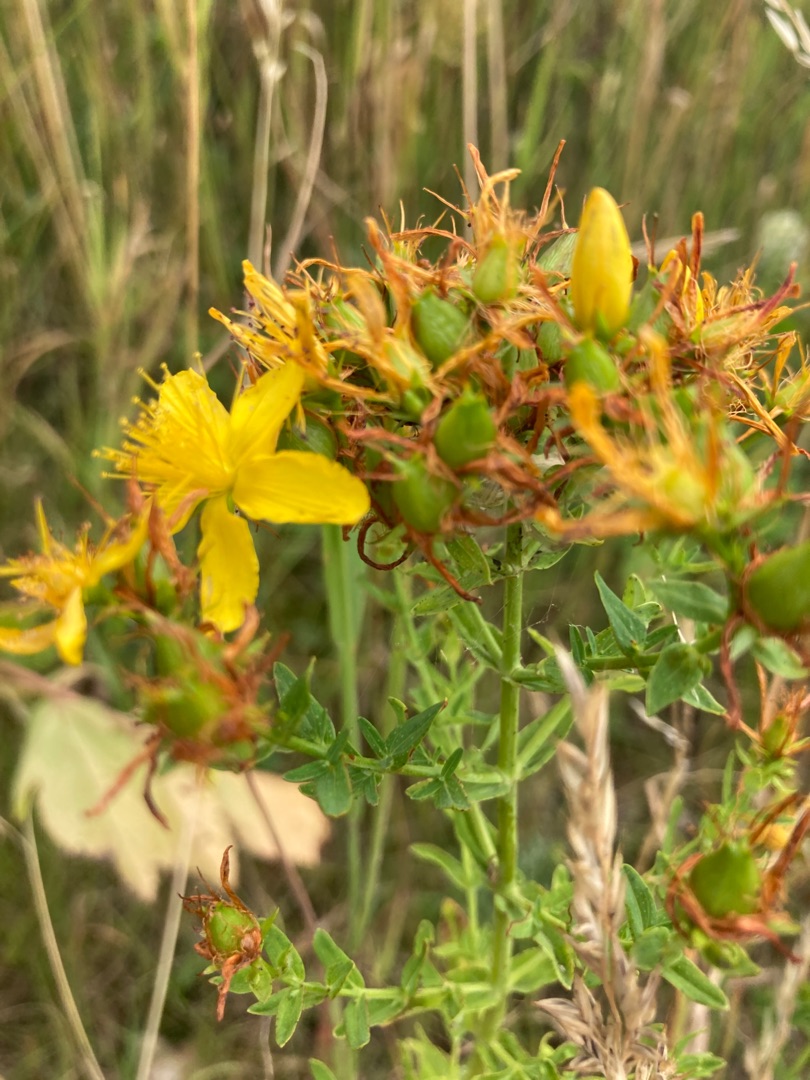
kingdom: Plantae
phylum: Tracheophyta
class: Magnoliopsida
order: Malpighiales
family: Hypericaceae
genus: Hypericum
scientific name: Hypericum perforatum
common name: Prikbladet perikon
